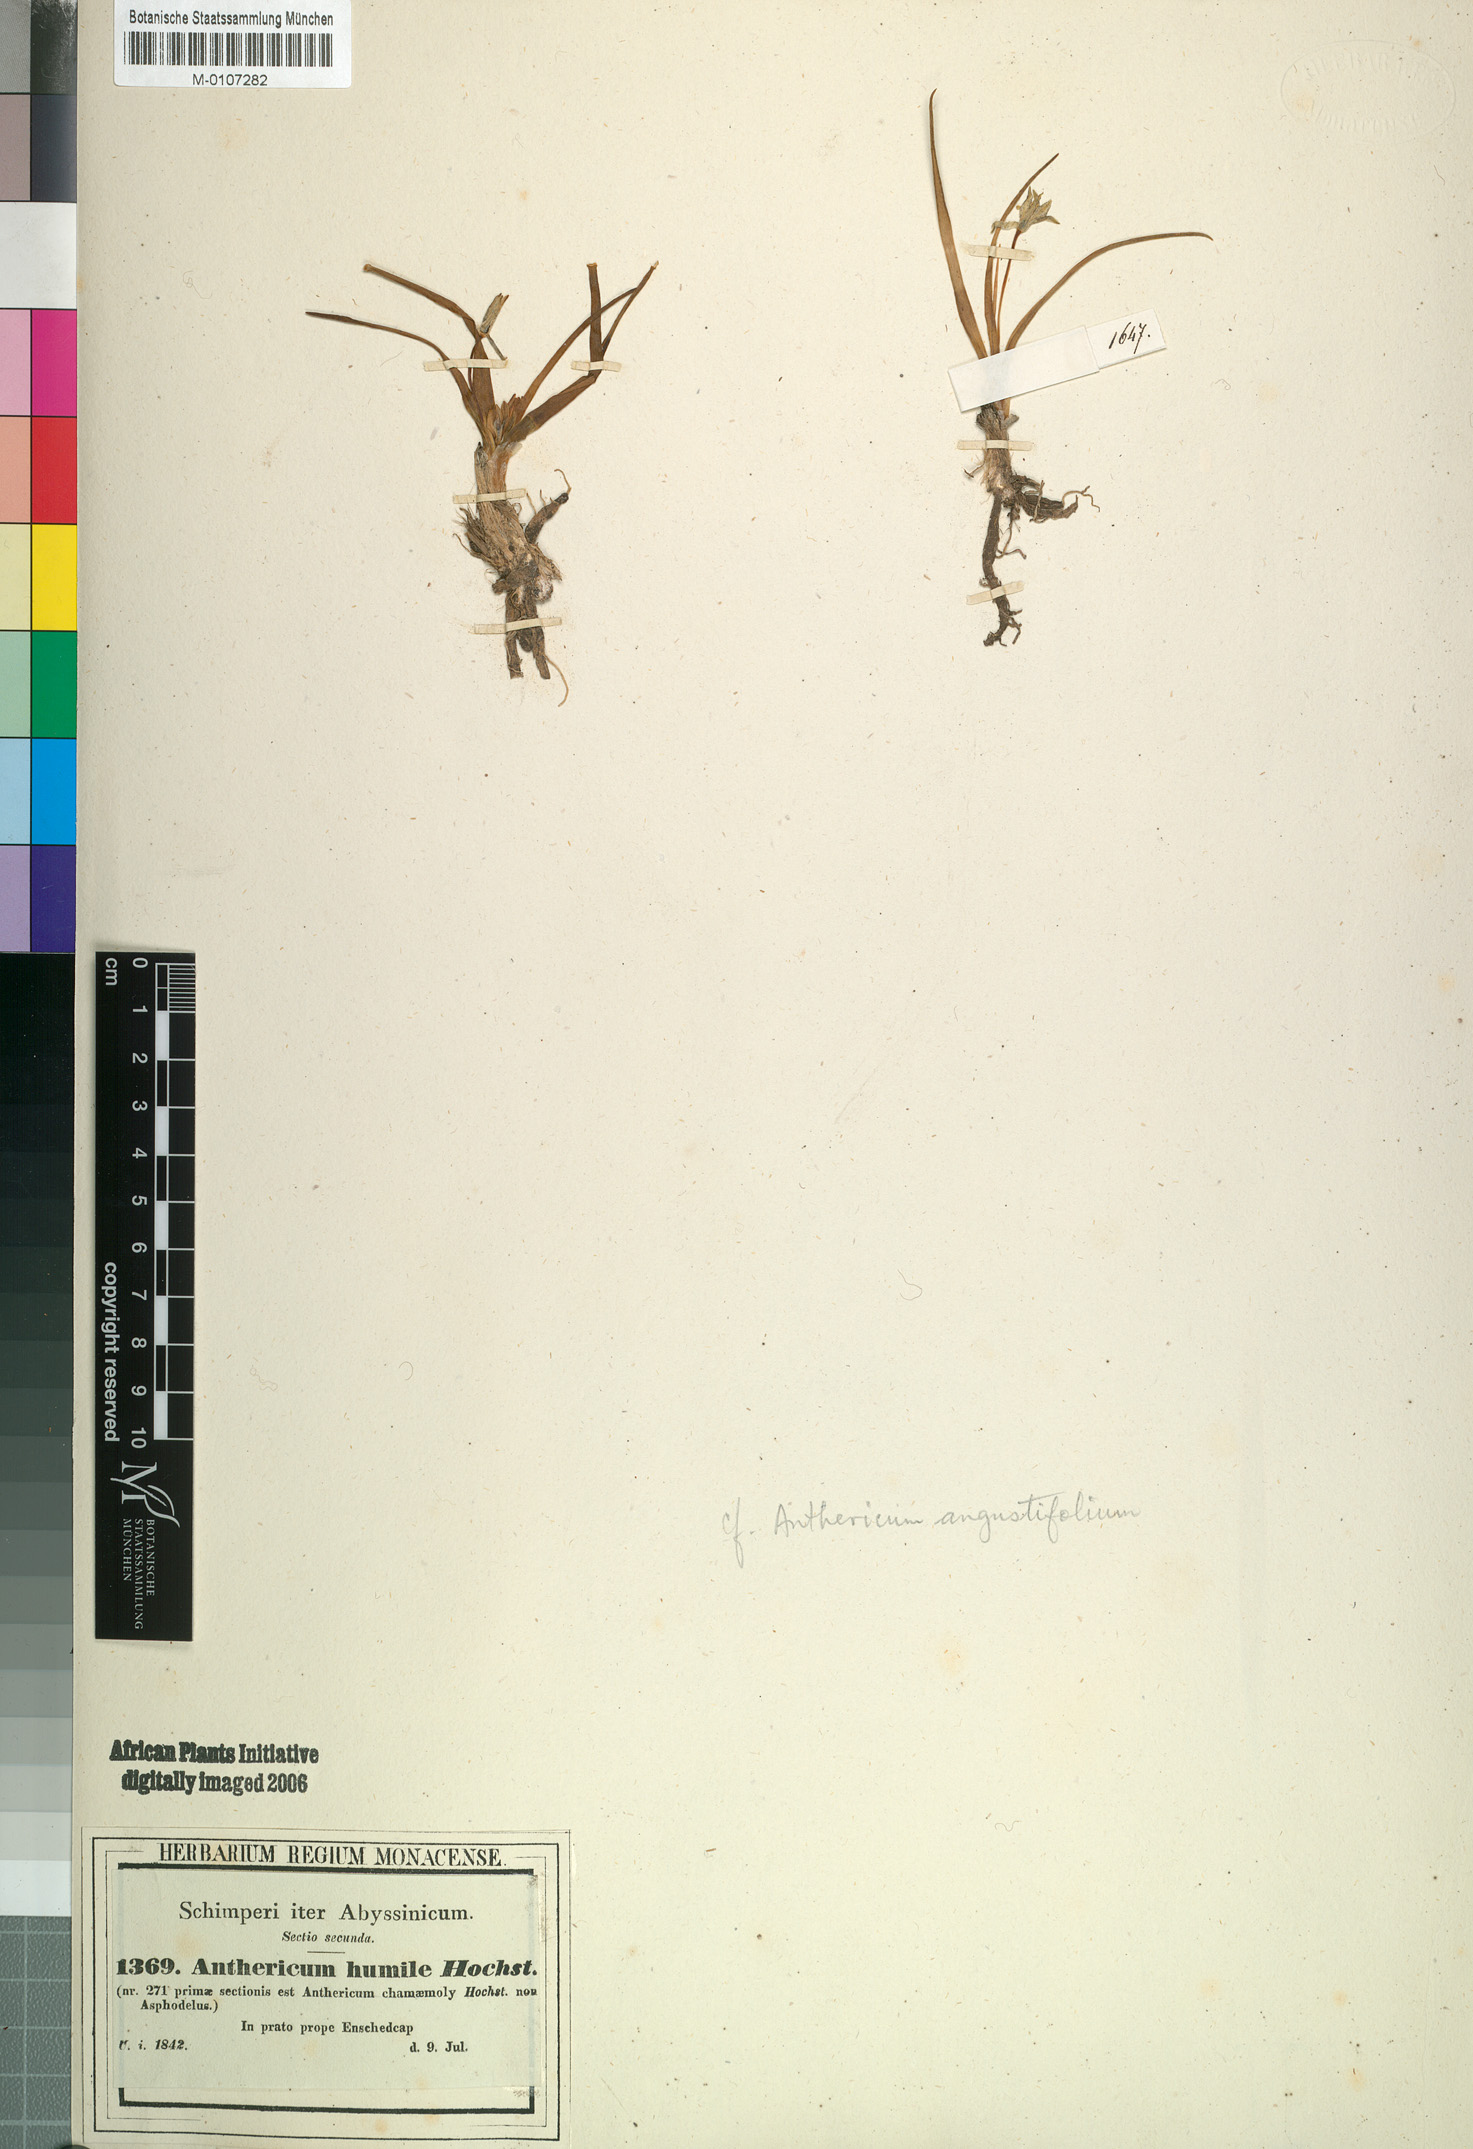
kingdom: Plantae
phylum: Tracheophyta
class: Liliopsida
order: Asparagales
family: Asparagaceae
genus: Anthericum
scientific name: Anthericum angustifolium
